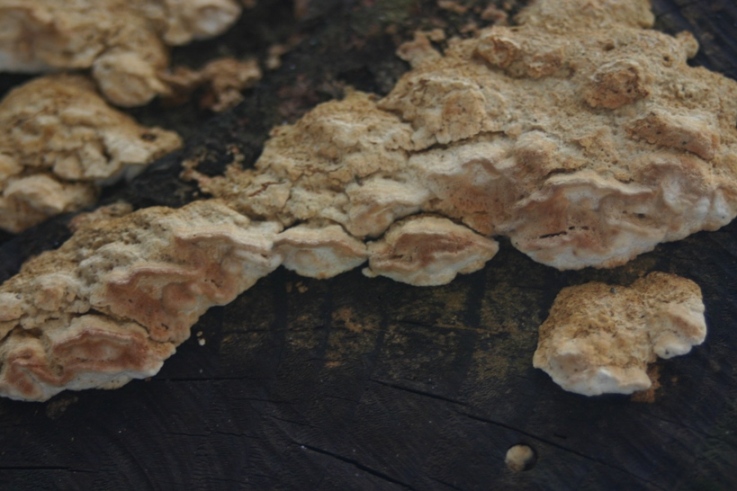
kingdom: Fungi
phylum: Basidiomycota
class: Agaricomycetes
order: Polyporales
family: Fomitopsidaceae
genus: Neoantrodia
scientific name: Neoantrodia serialis
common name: række-sejporesvamp
